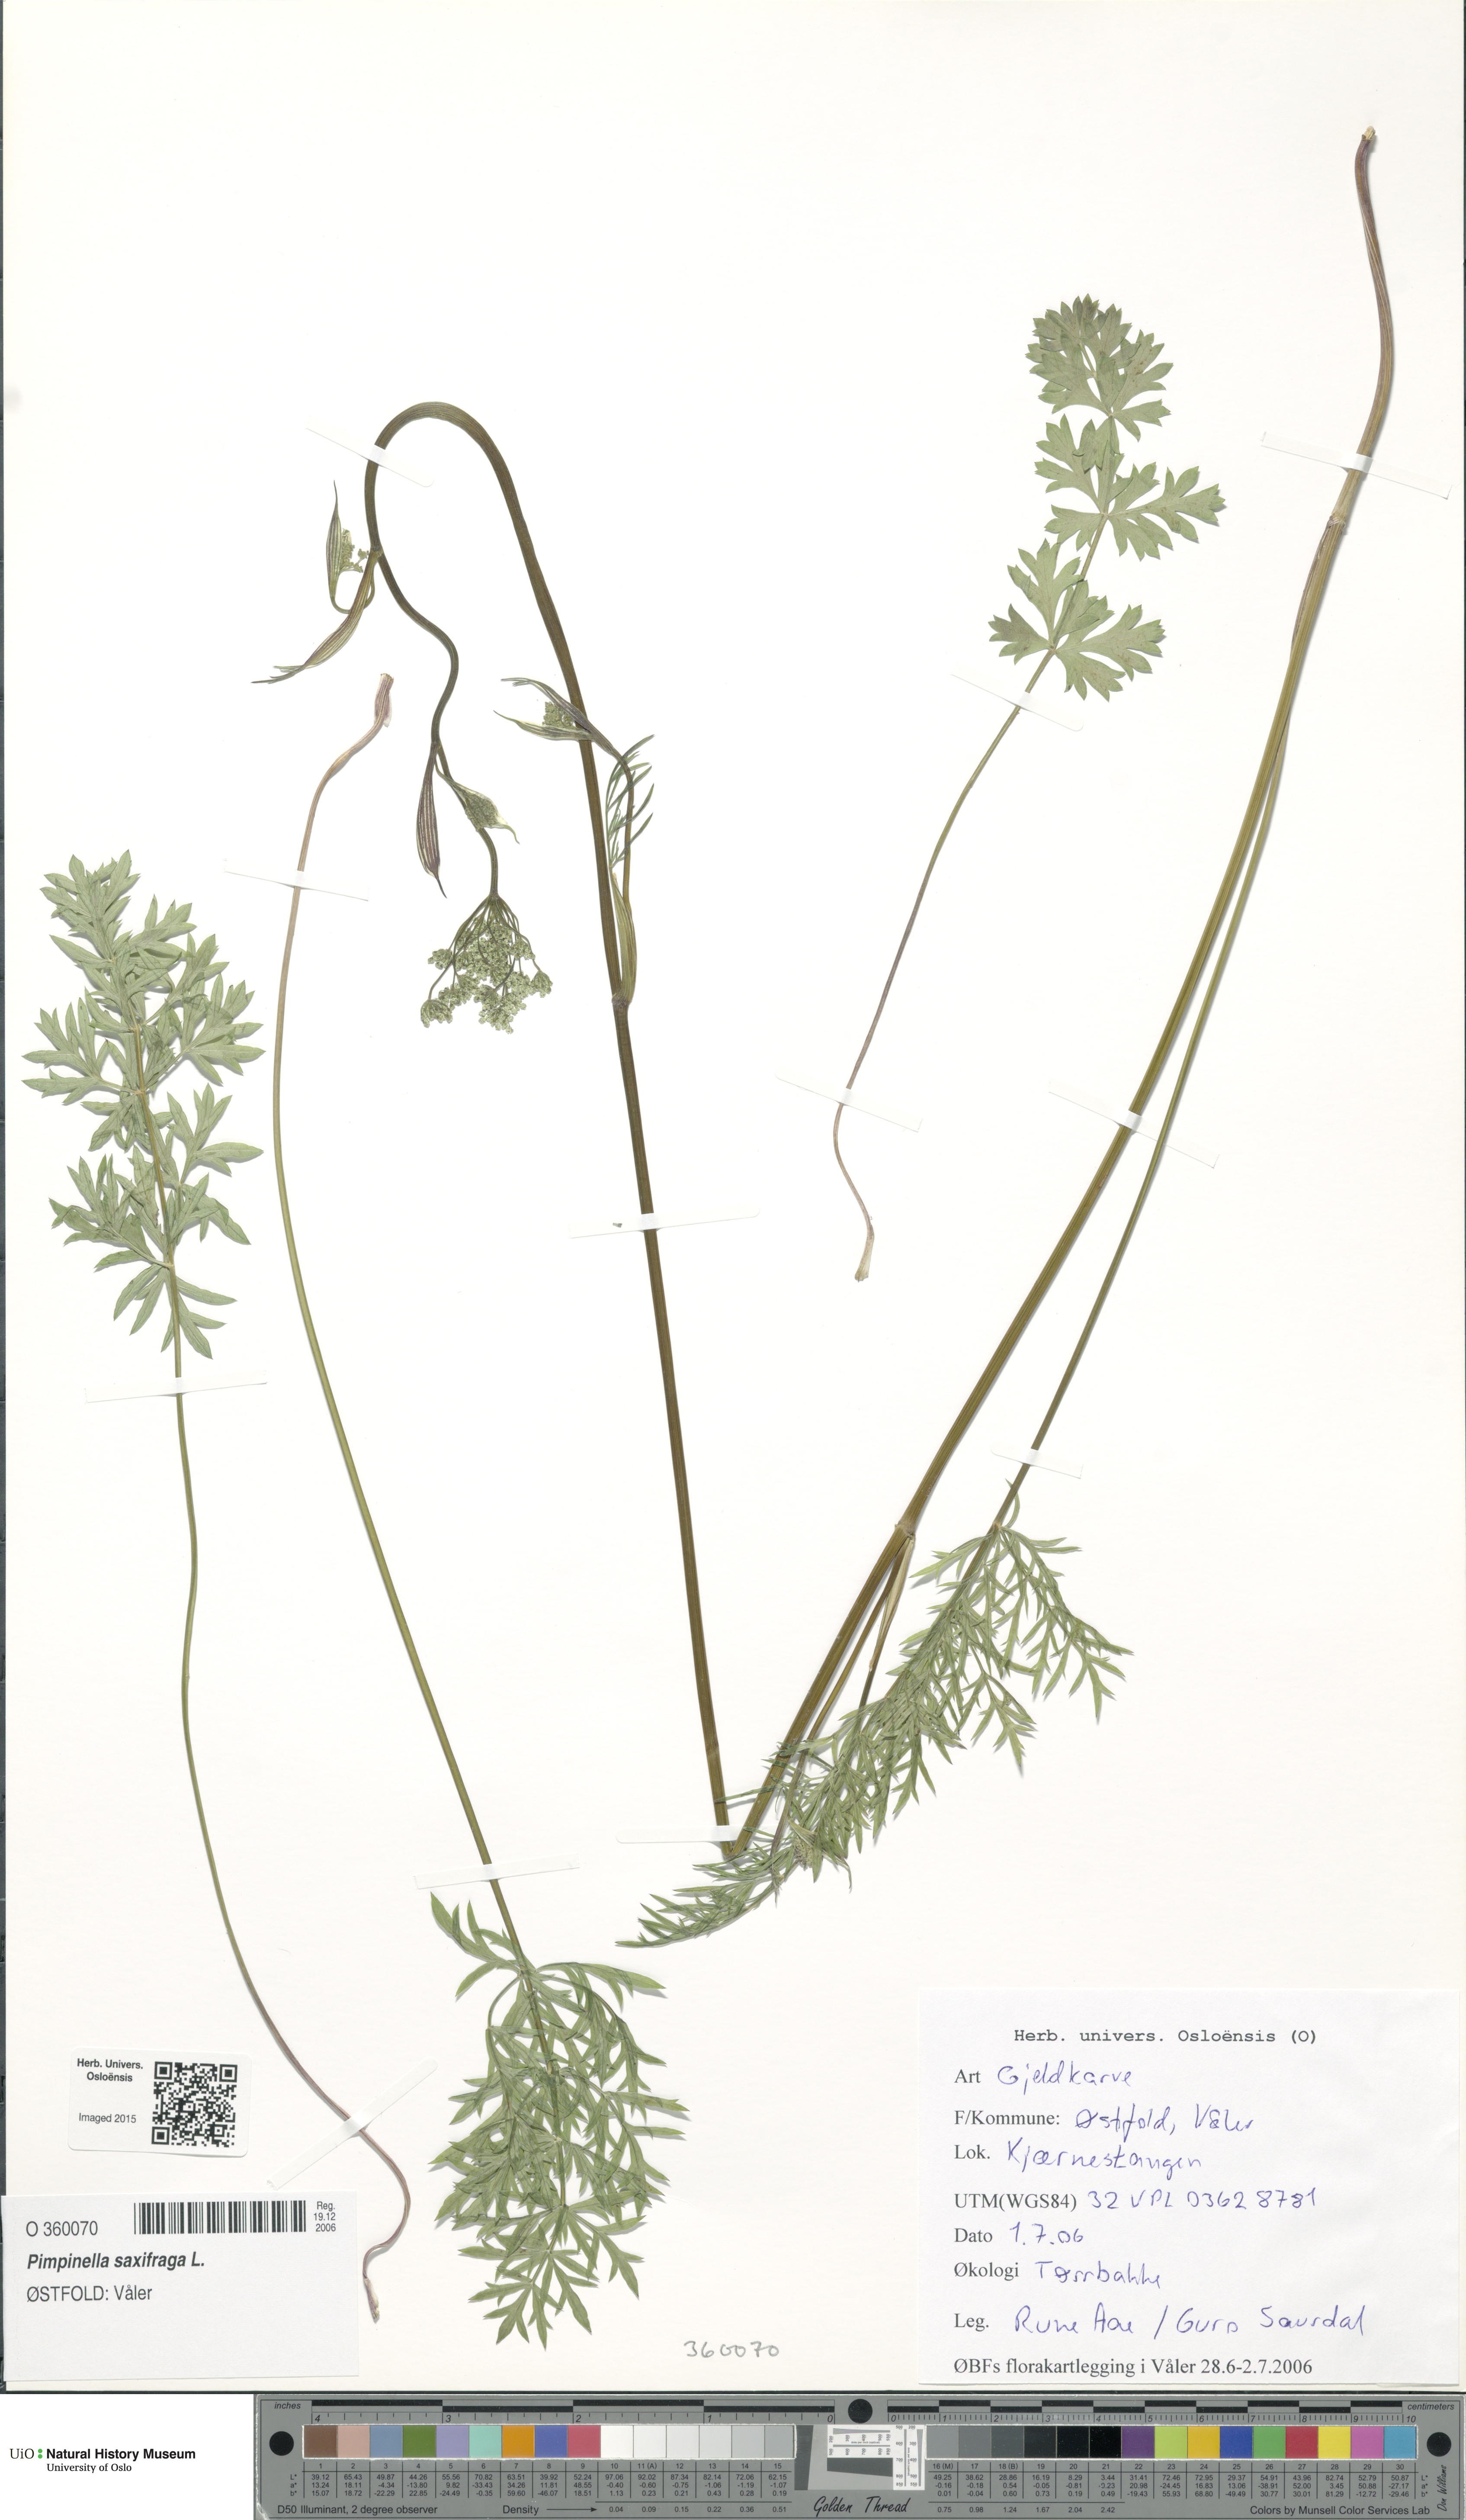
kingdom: Plantae
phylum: Tracheophyta
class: Magnoliopsida
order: Apiales
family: Apiaceae
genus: Pimpinella
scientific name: Pimpinella saxifraga
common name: Burnet-saxifrage
